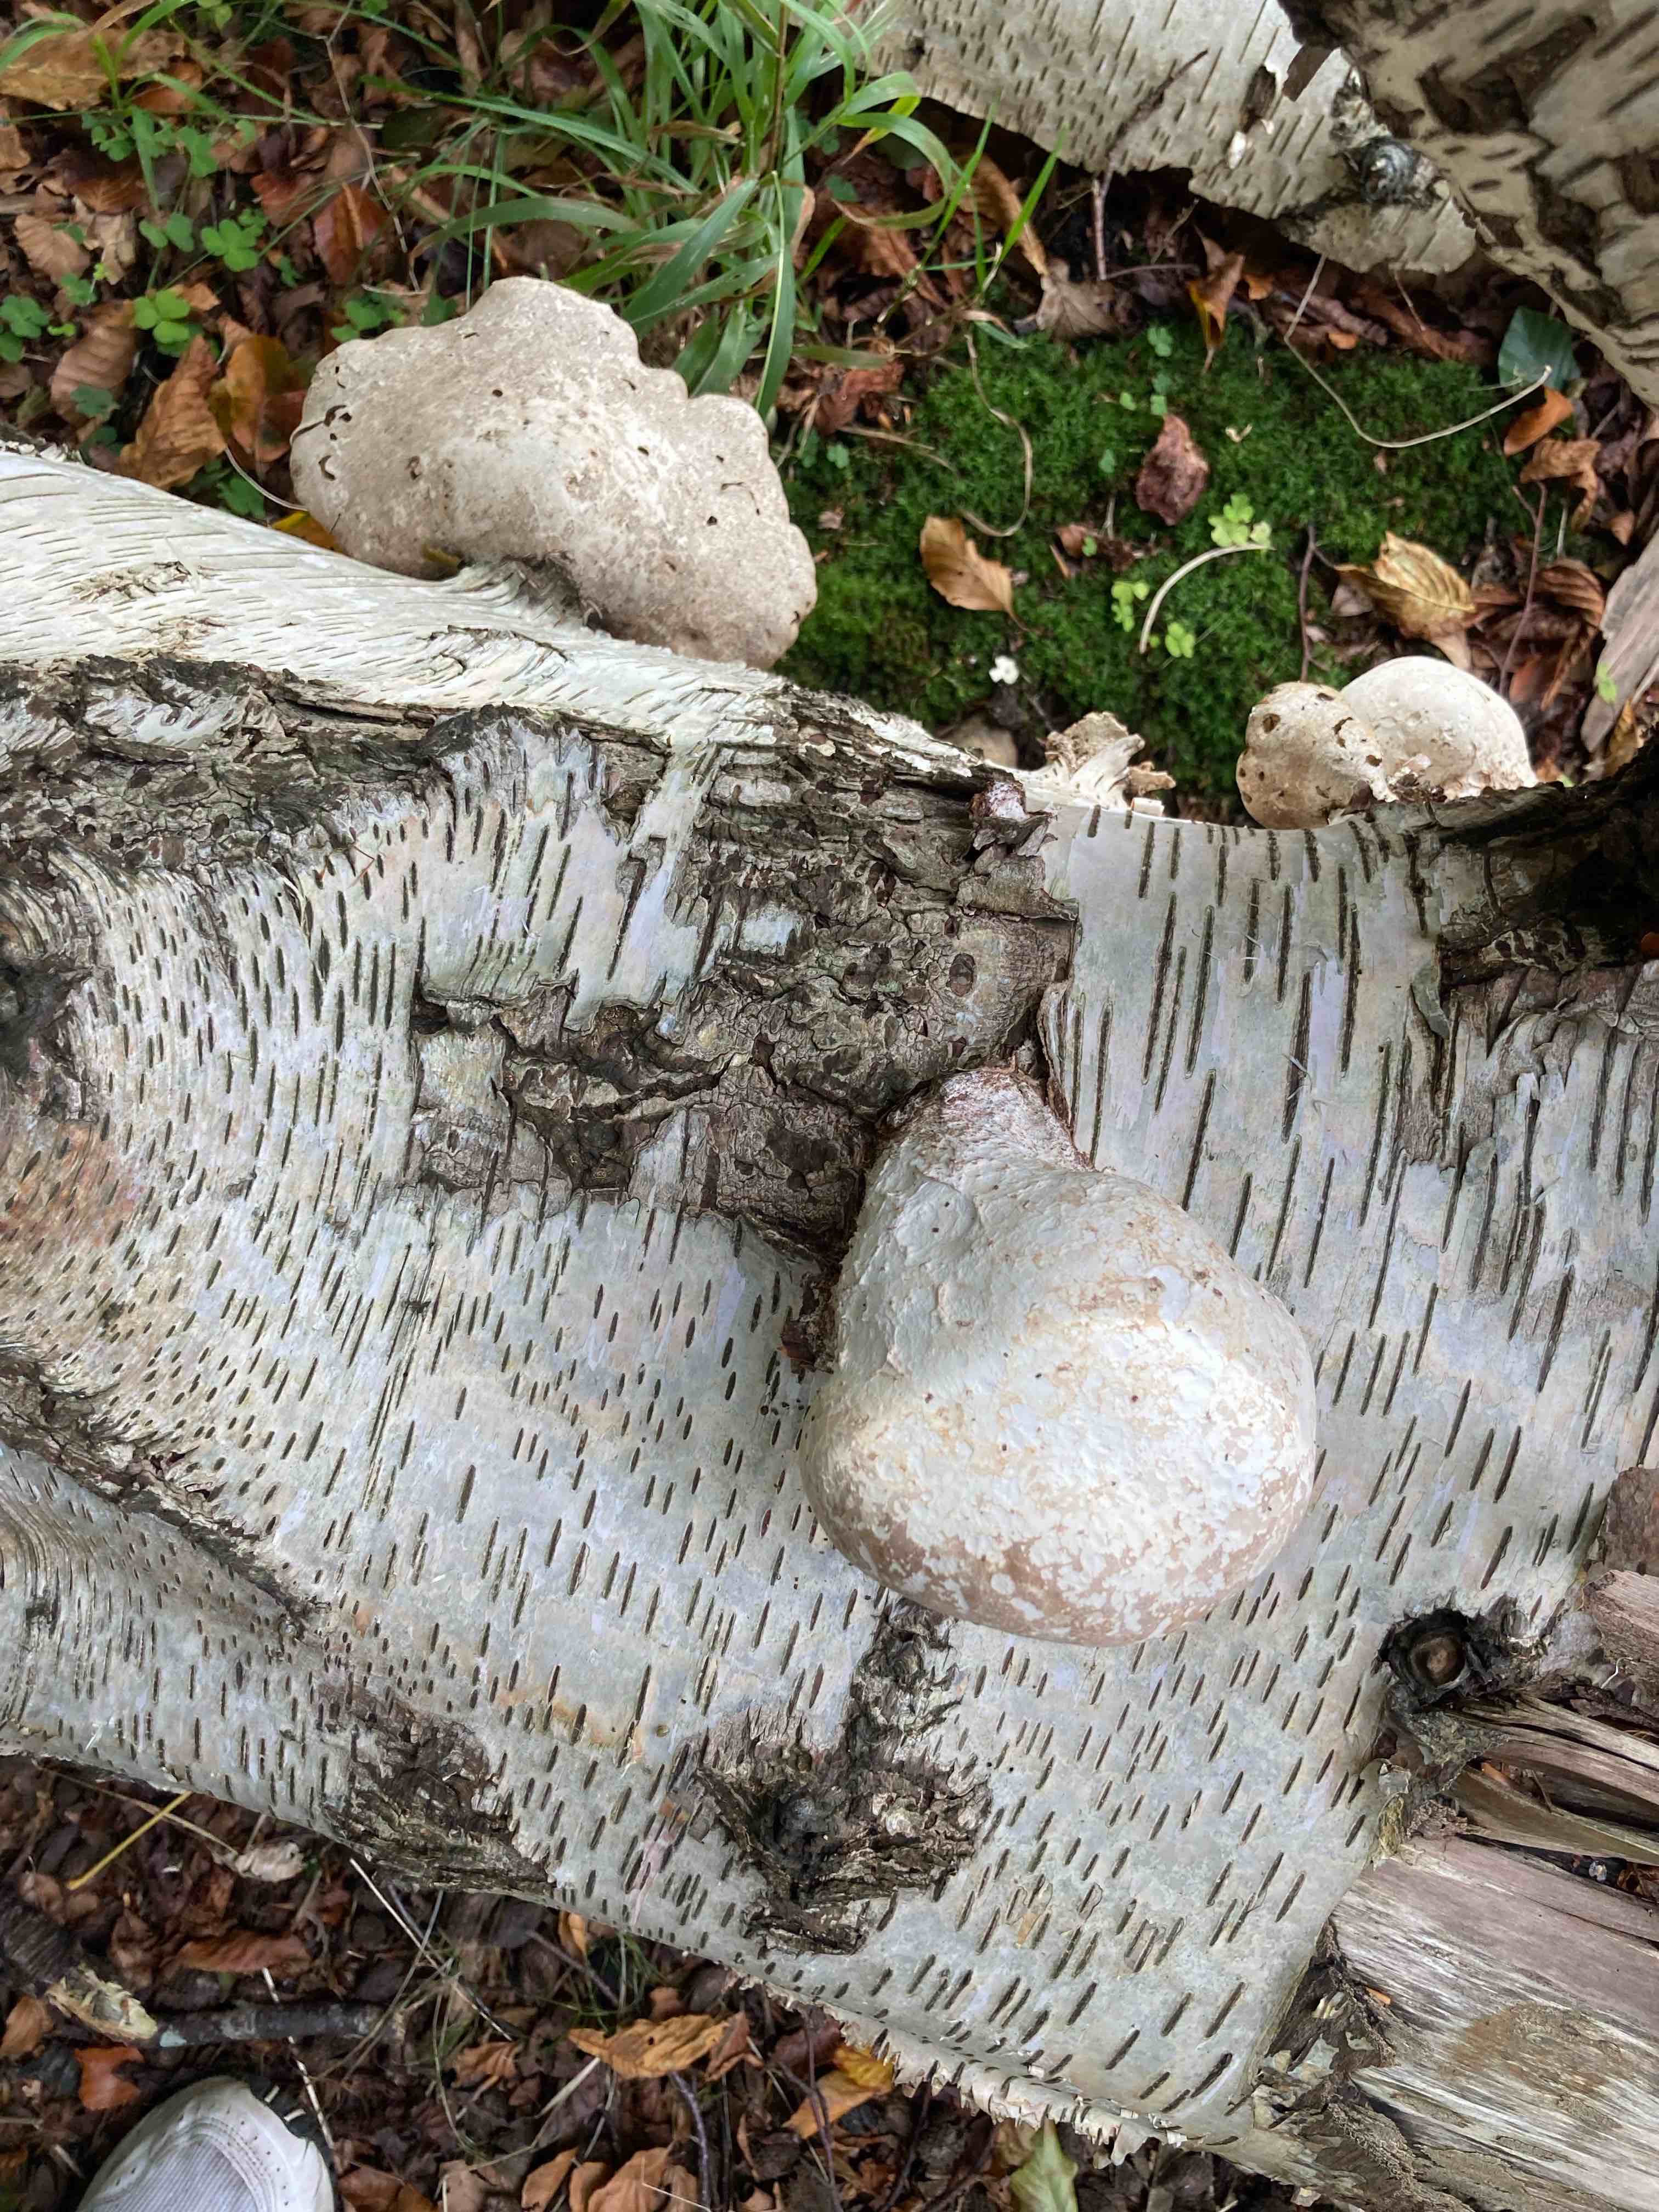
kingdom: Fungi
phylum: Basidiomycota
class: Agaricomycetes
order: Polyporales
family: Fomitopsidaceae
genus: Fomitopsis
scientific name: Fomitopsis betulina
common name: birkeporesvamp
